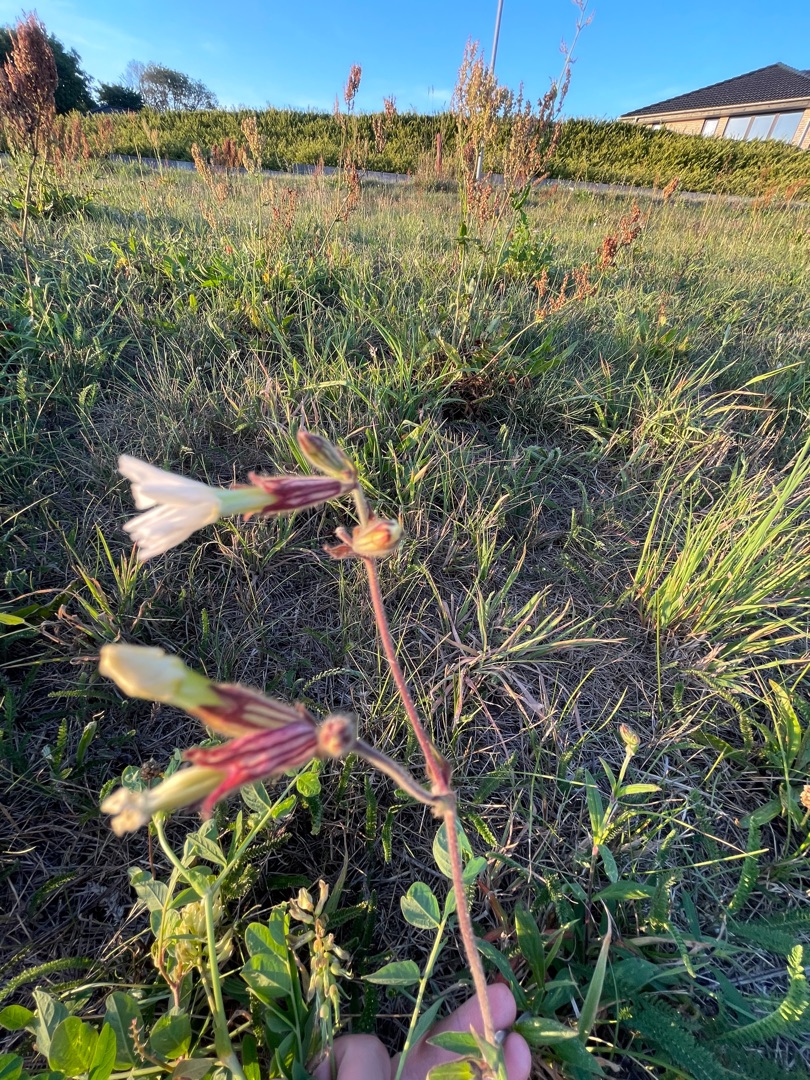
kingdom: Plantae
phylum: Tracheophyta
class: Magnoliopsida
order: Caryophyllales
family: Caryophyllaceae
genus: Silene
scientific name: Silene latifolia
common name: Aftenpragtstjerne
